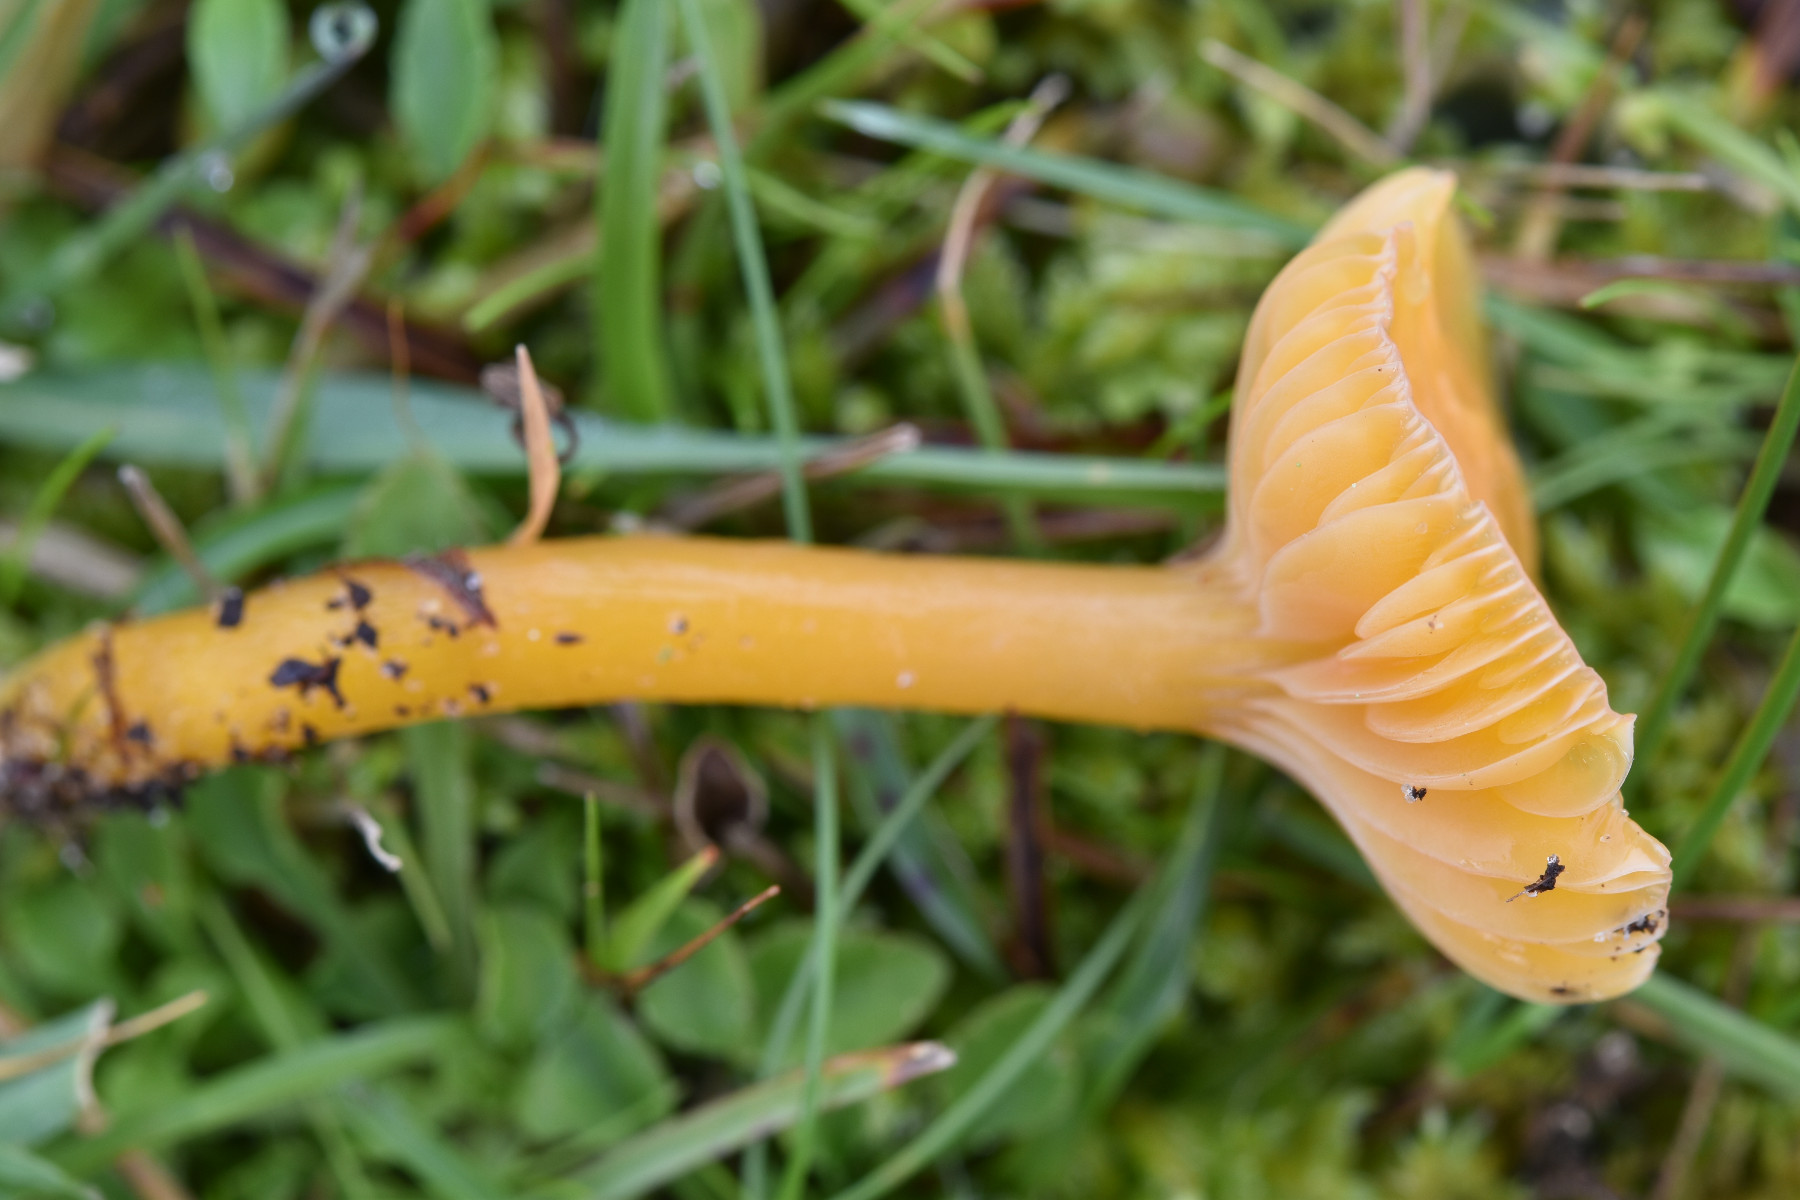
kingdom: Fungi
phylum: Basidiomycota
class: Agaricomycetes
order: Agaricales
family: Hygrophoraceae
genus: Gliophorus
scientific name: Gliophorus laetus
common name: brusk-vokshat
